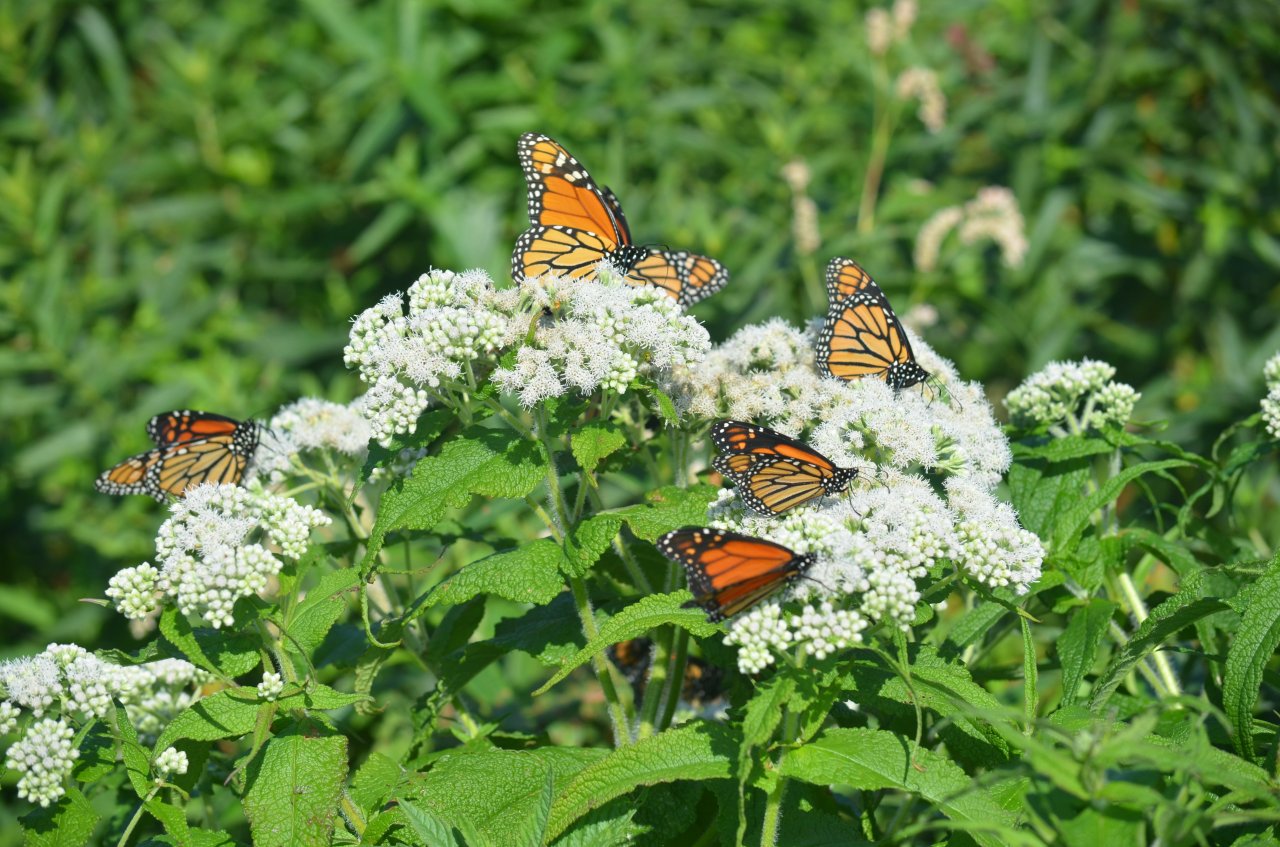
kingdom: Animalia
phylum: Arthropoda
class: Insecta
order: Lepidoptera
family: Nymphalidae
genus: Danaus
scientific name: Danaus plexippus
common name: Monarch
